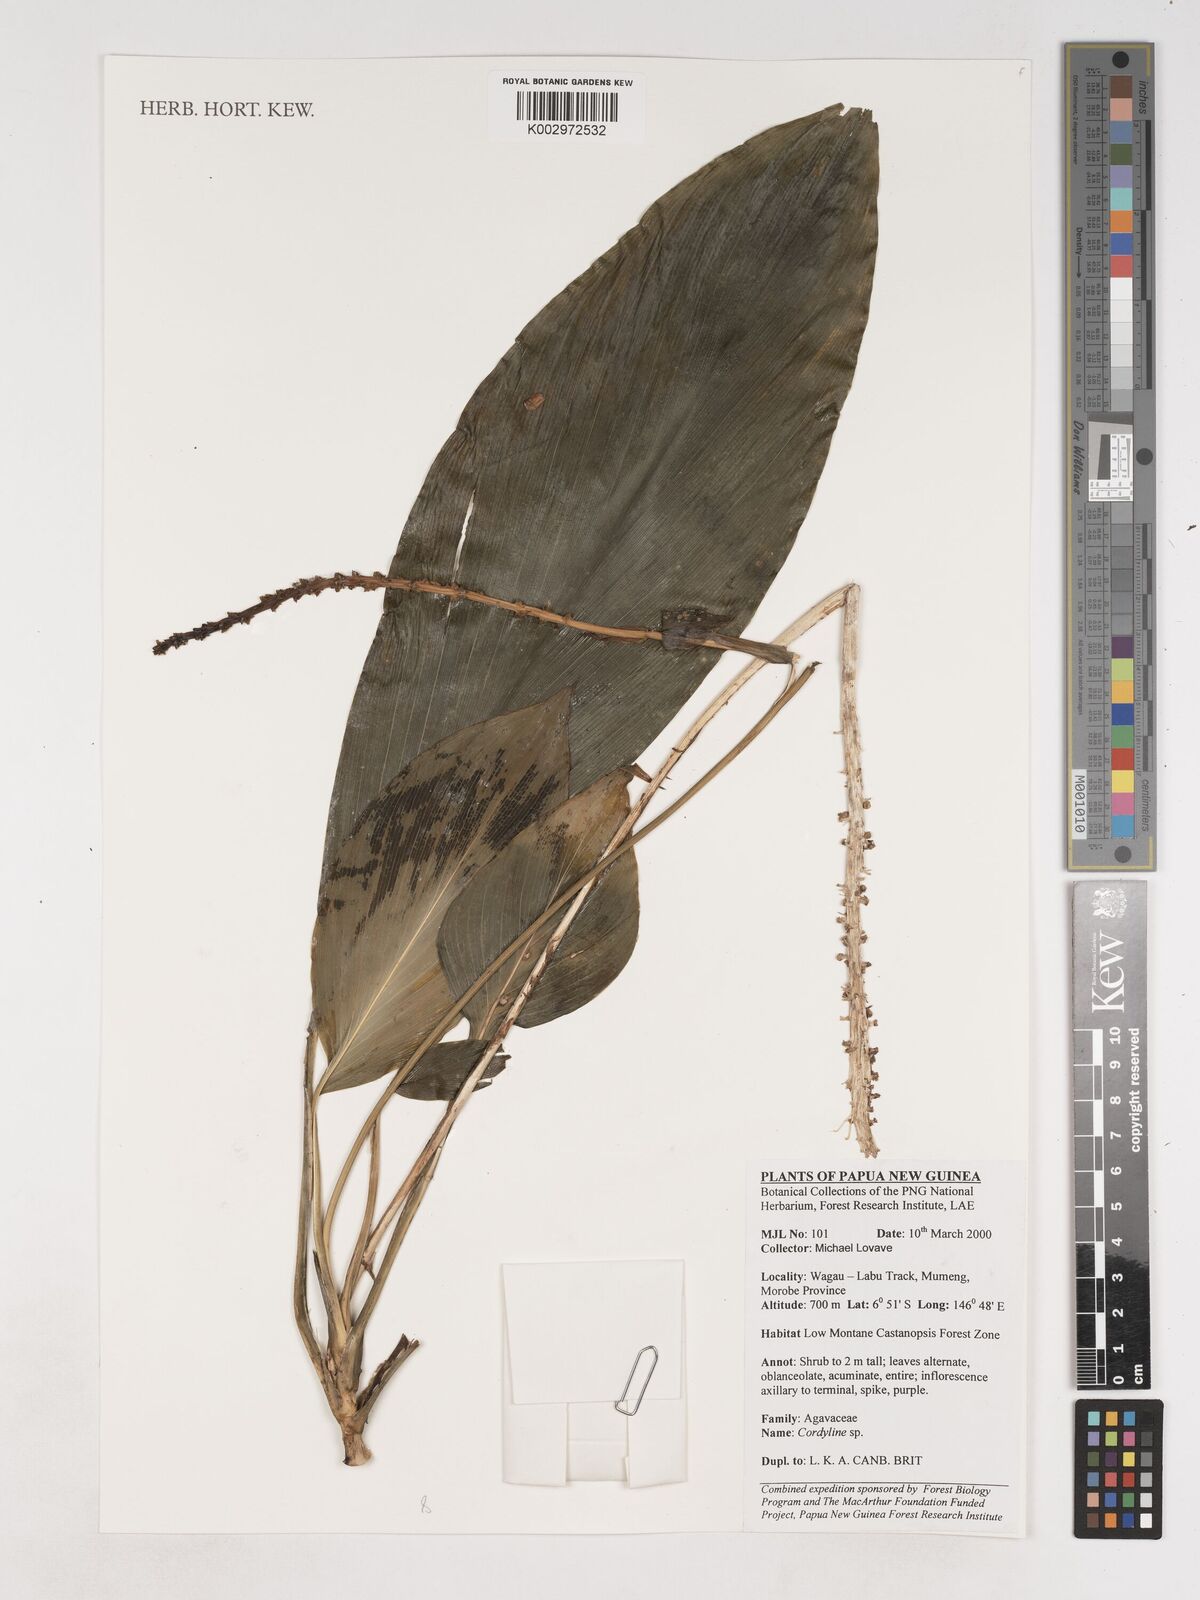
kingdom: Plantae
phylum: Tracheophyta
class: Liliopsida
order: Asparagales
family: Asparagaceae
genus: Cordyline
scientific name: Cordyline
